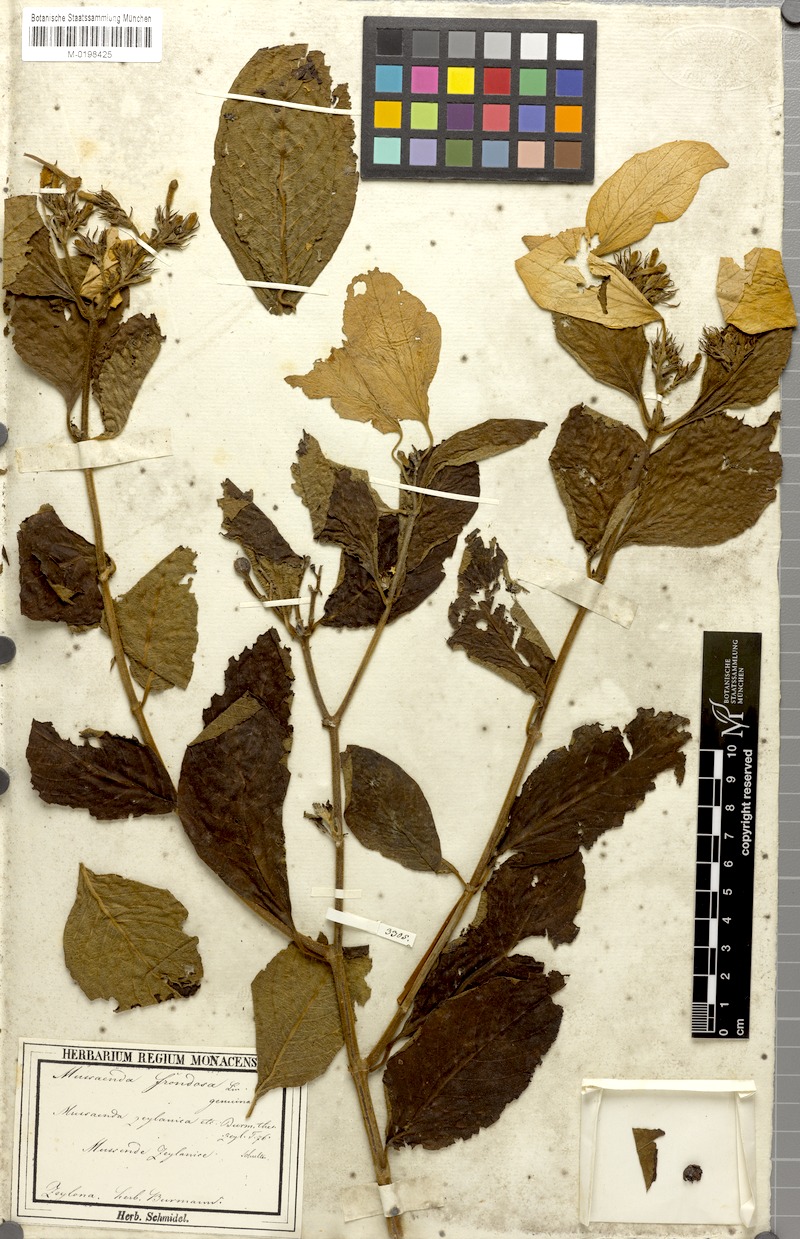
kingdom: Plantae
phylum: Tracheophyta
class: Magnoliopsida
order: Gentianales
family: Rubiaceae
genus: Mussaenda
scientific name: Mussaenda frondosa
